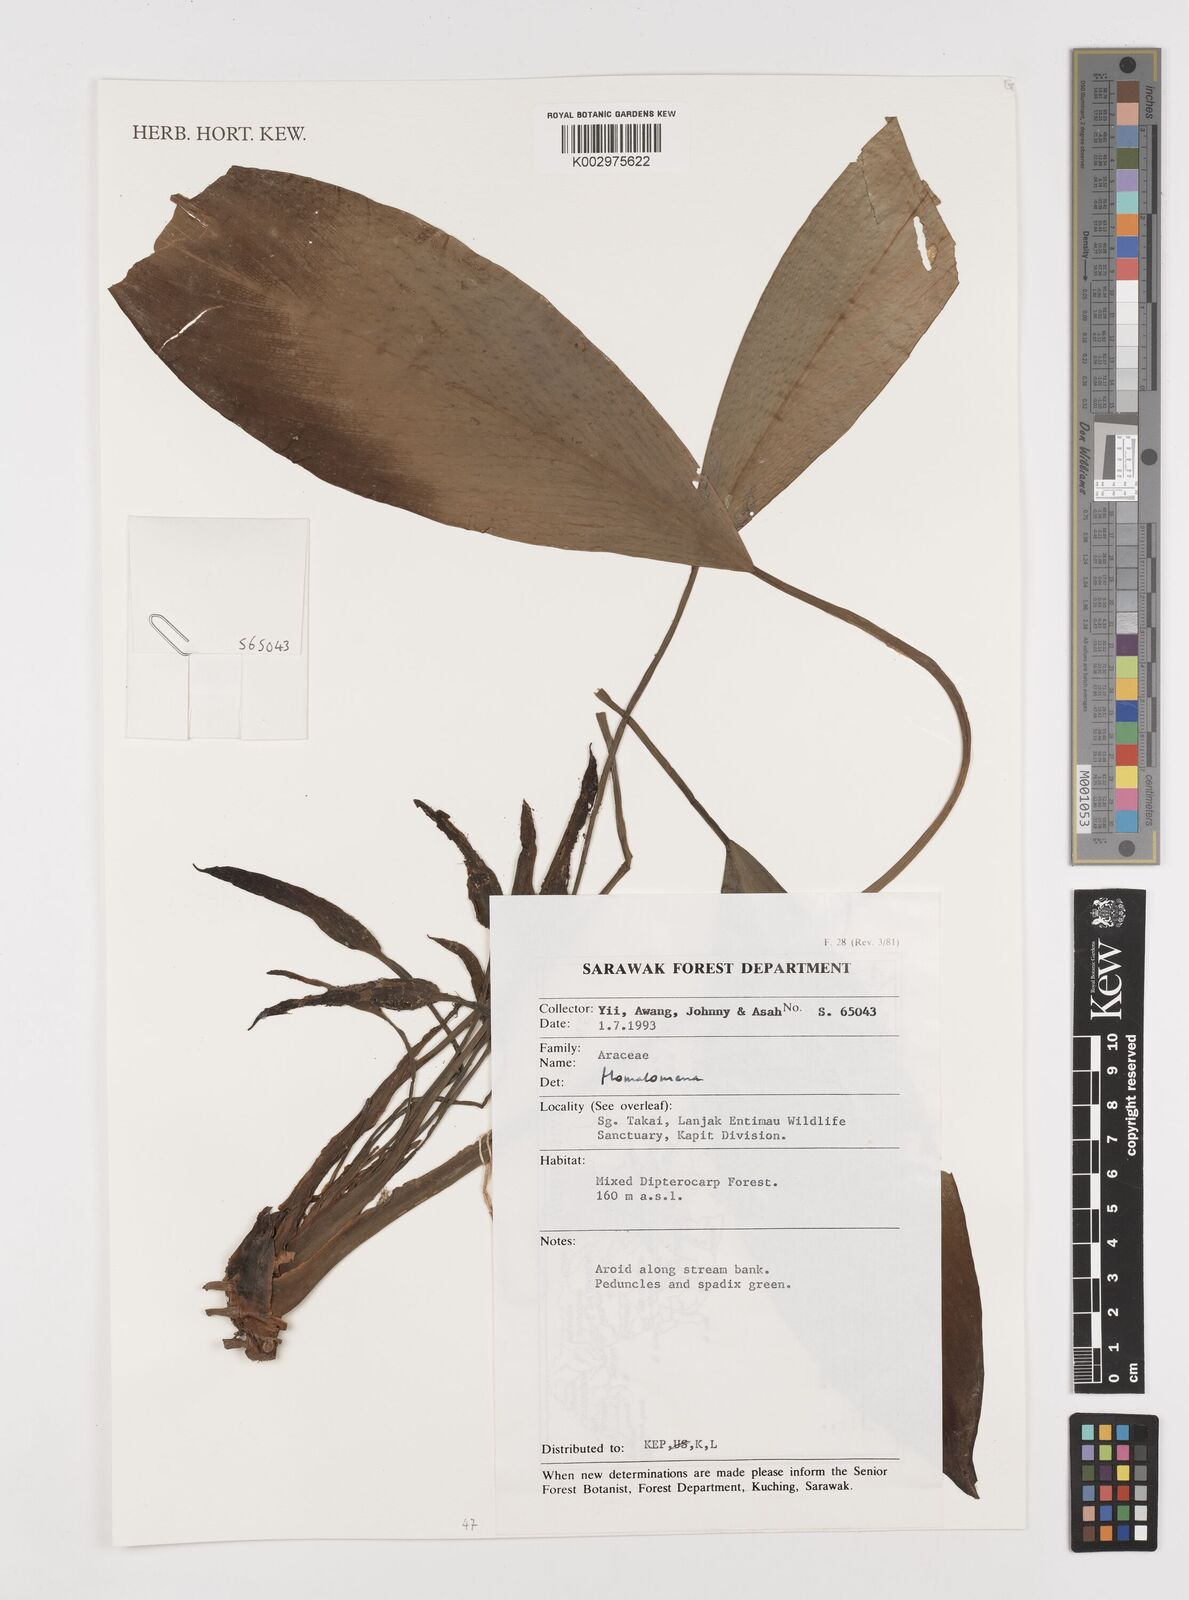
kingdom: Plantae
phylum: Tracheophyta
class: Liliopsida
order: Alismatales
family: Araceae
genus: Homalomena
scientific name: Homalomena
